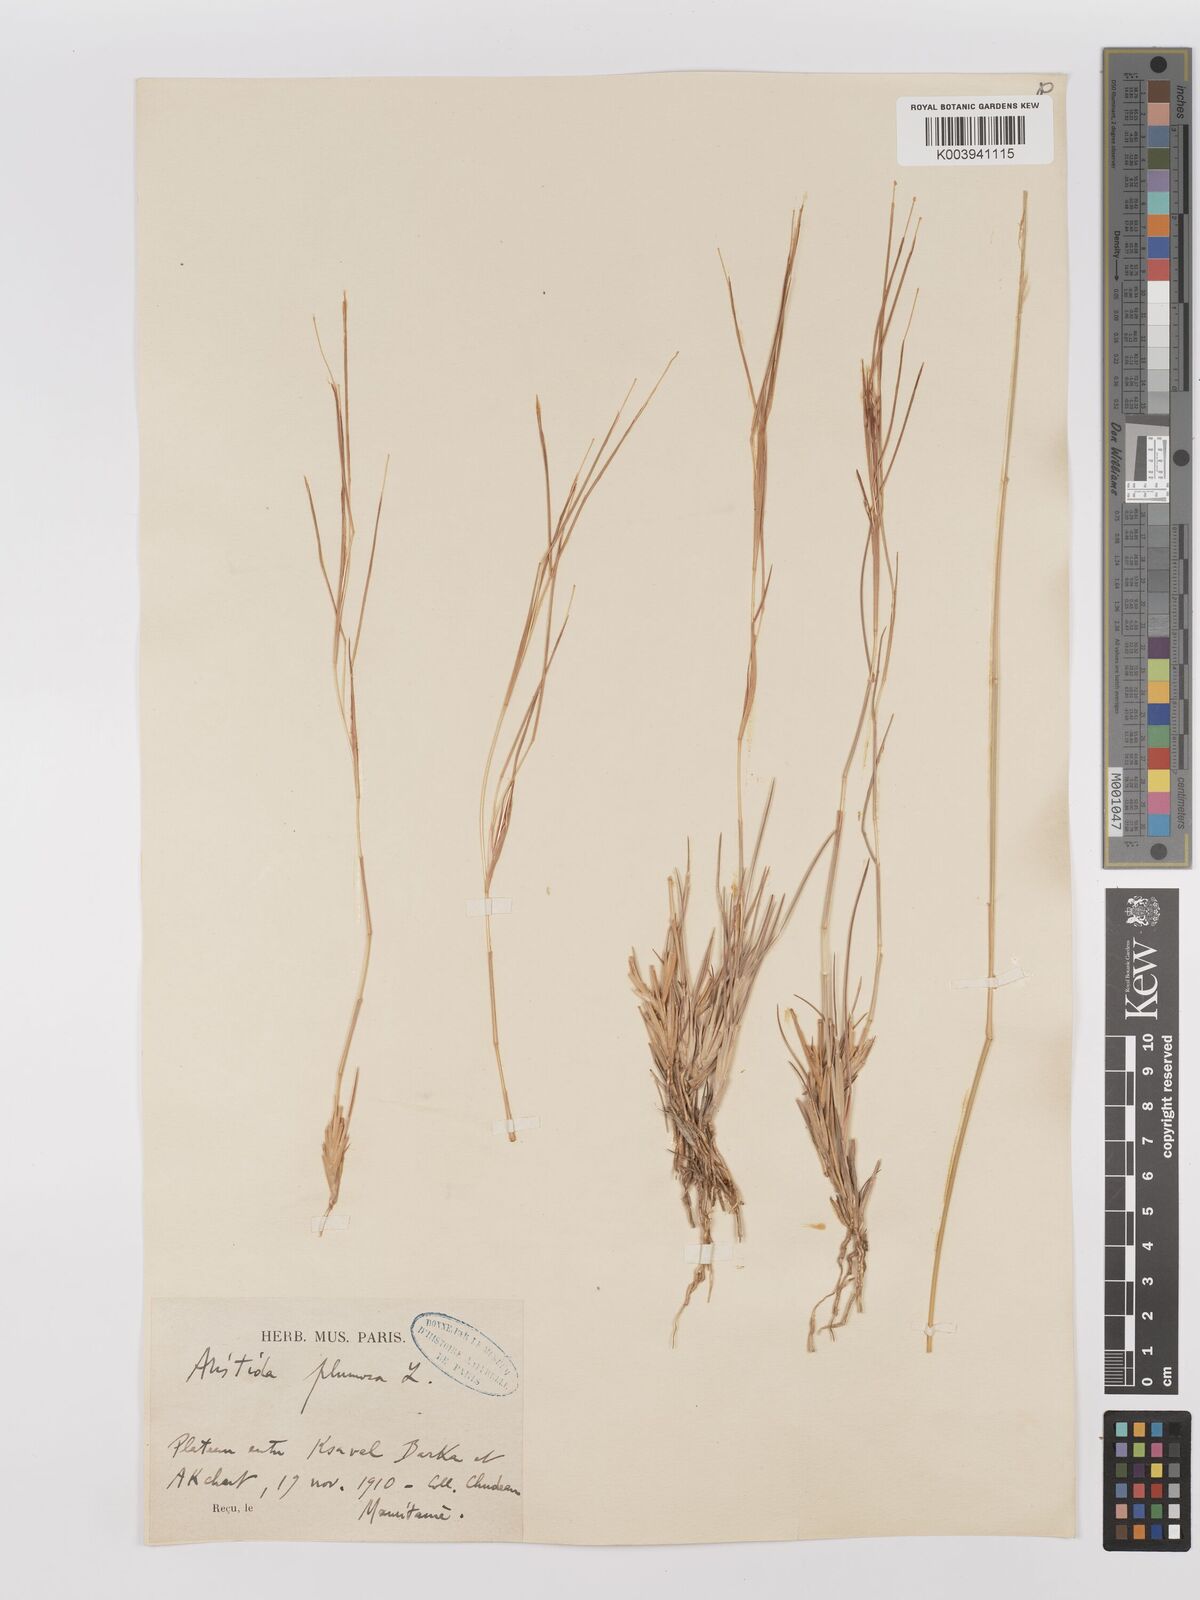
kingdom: Plantae
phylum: Tracheophyta
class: Liliopsida
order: Poales
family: Poaceae
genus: Stipagrostis
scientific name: Stipagrostis plumosa
